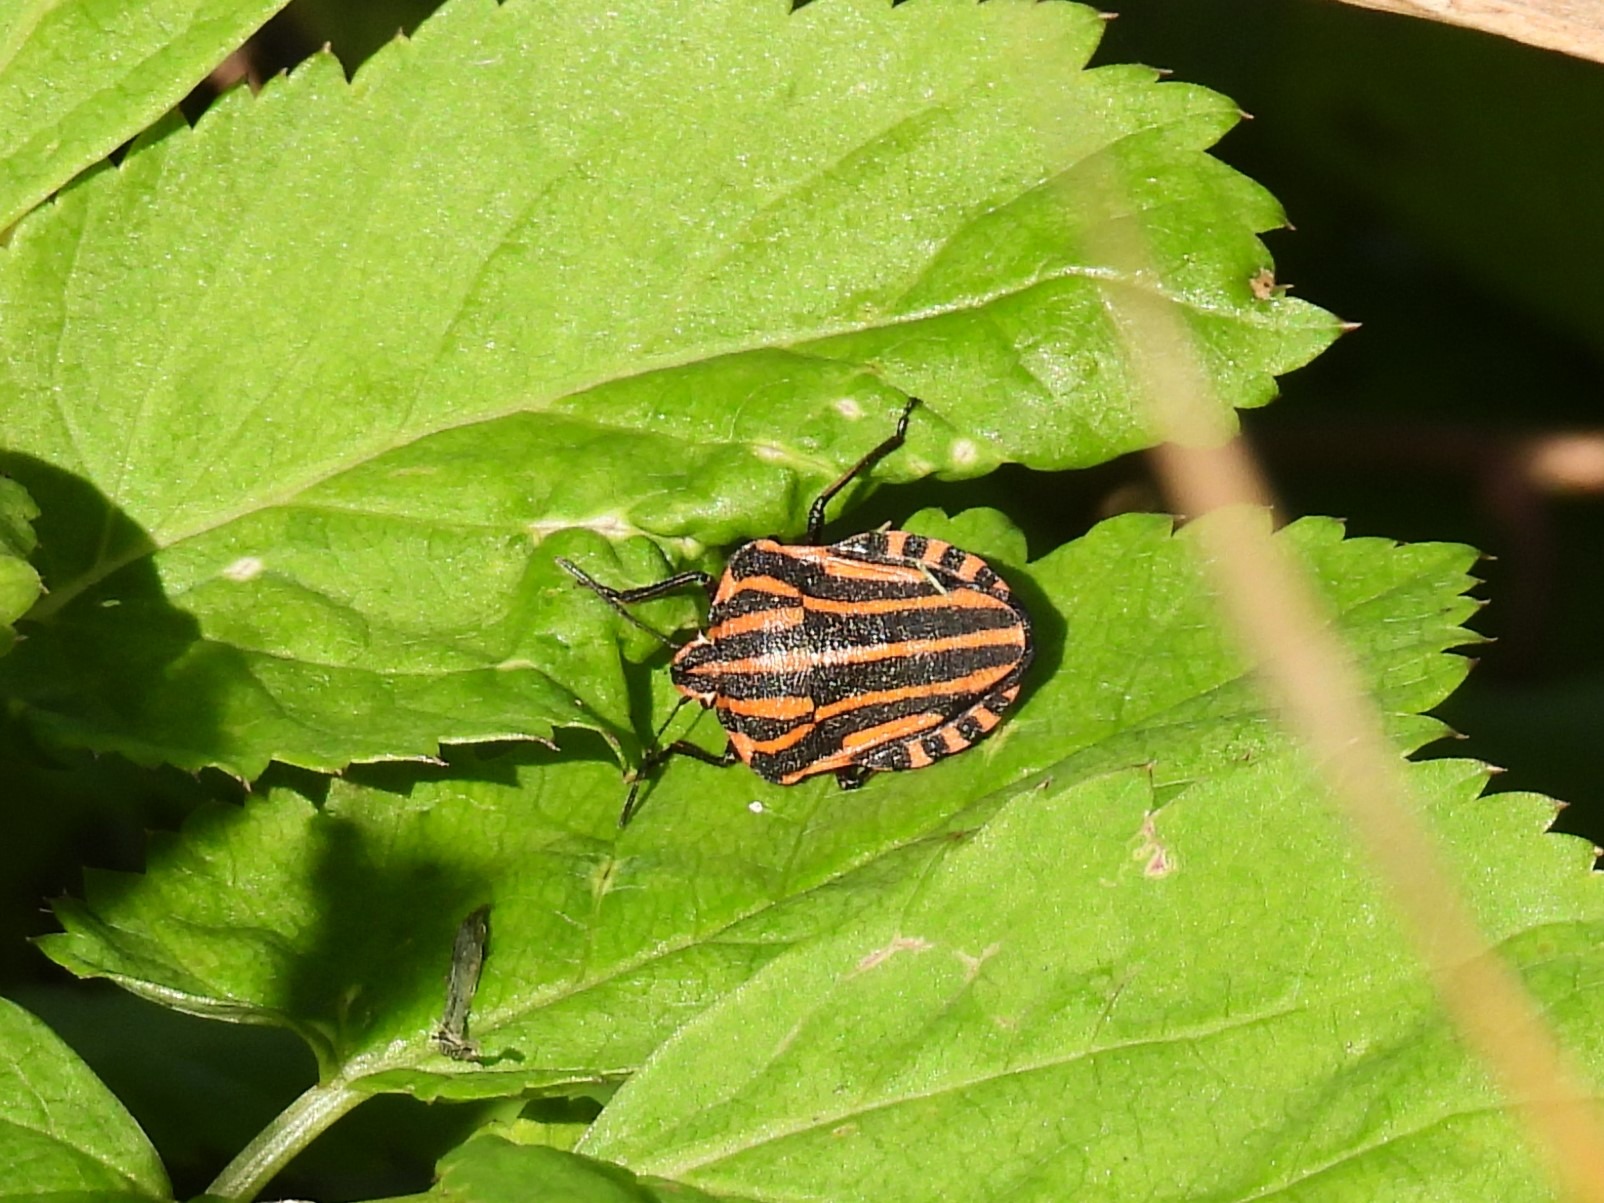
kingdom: Animalia
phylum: Arthropoda
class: Insecta
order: Hemiptera
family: Pentatomidae
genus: Graphosoma
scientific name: Graphosoma italicum
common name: Stribetæge
